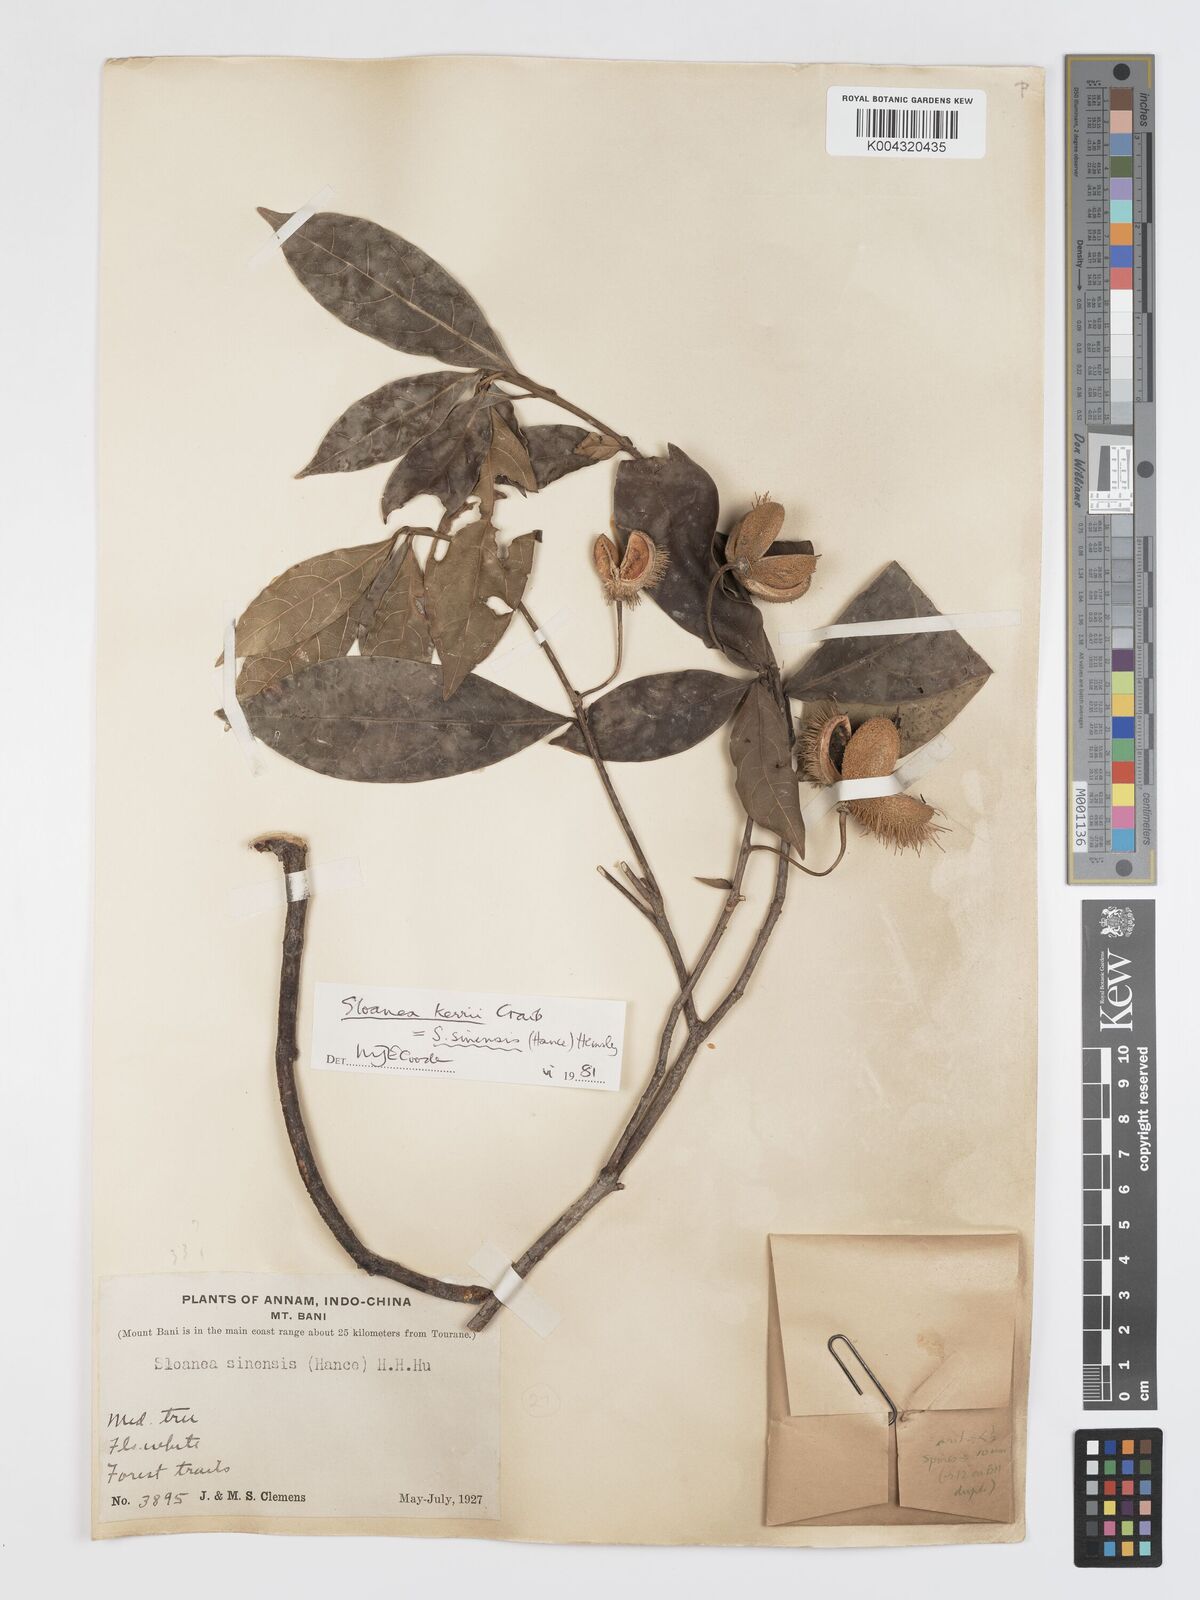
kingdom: Plantae
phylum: Tracheophyta
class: Magnoliopsida
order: Oxalidales
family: Elaeocarpaceae
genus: Sloanea
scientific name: Sloanea sinensis
